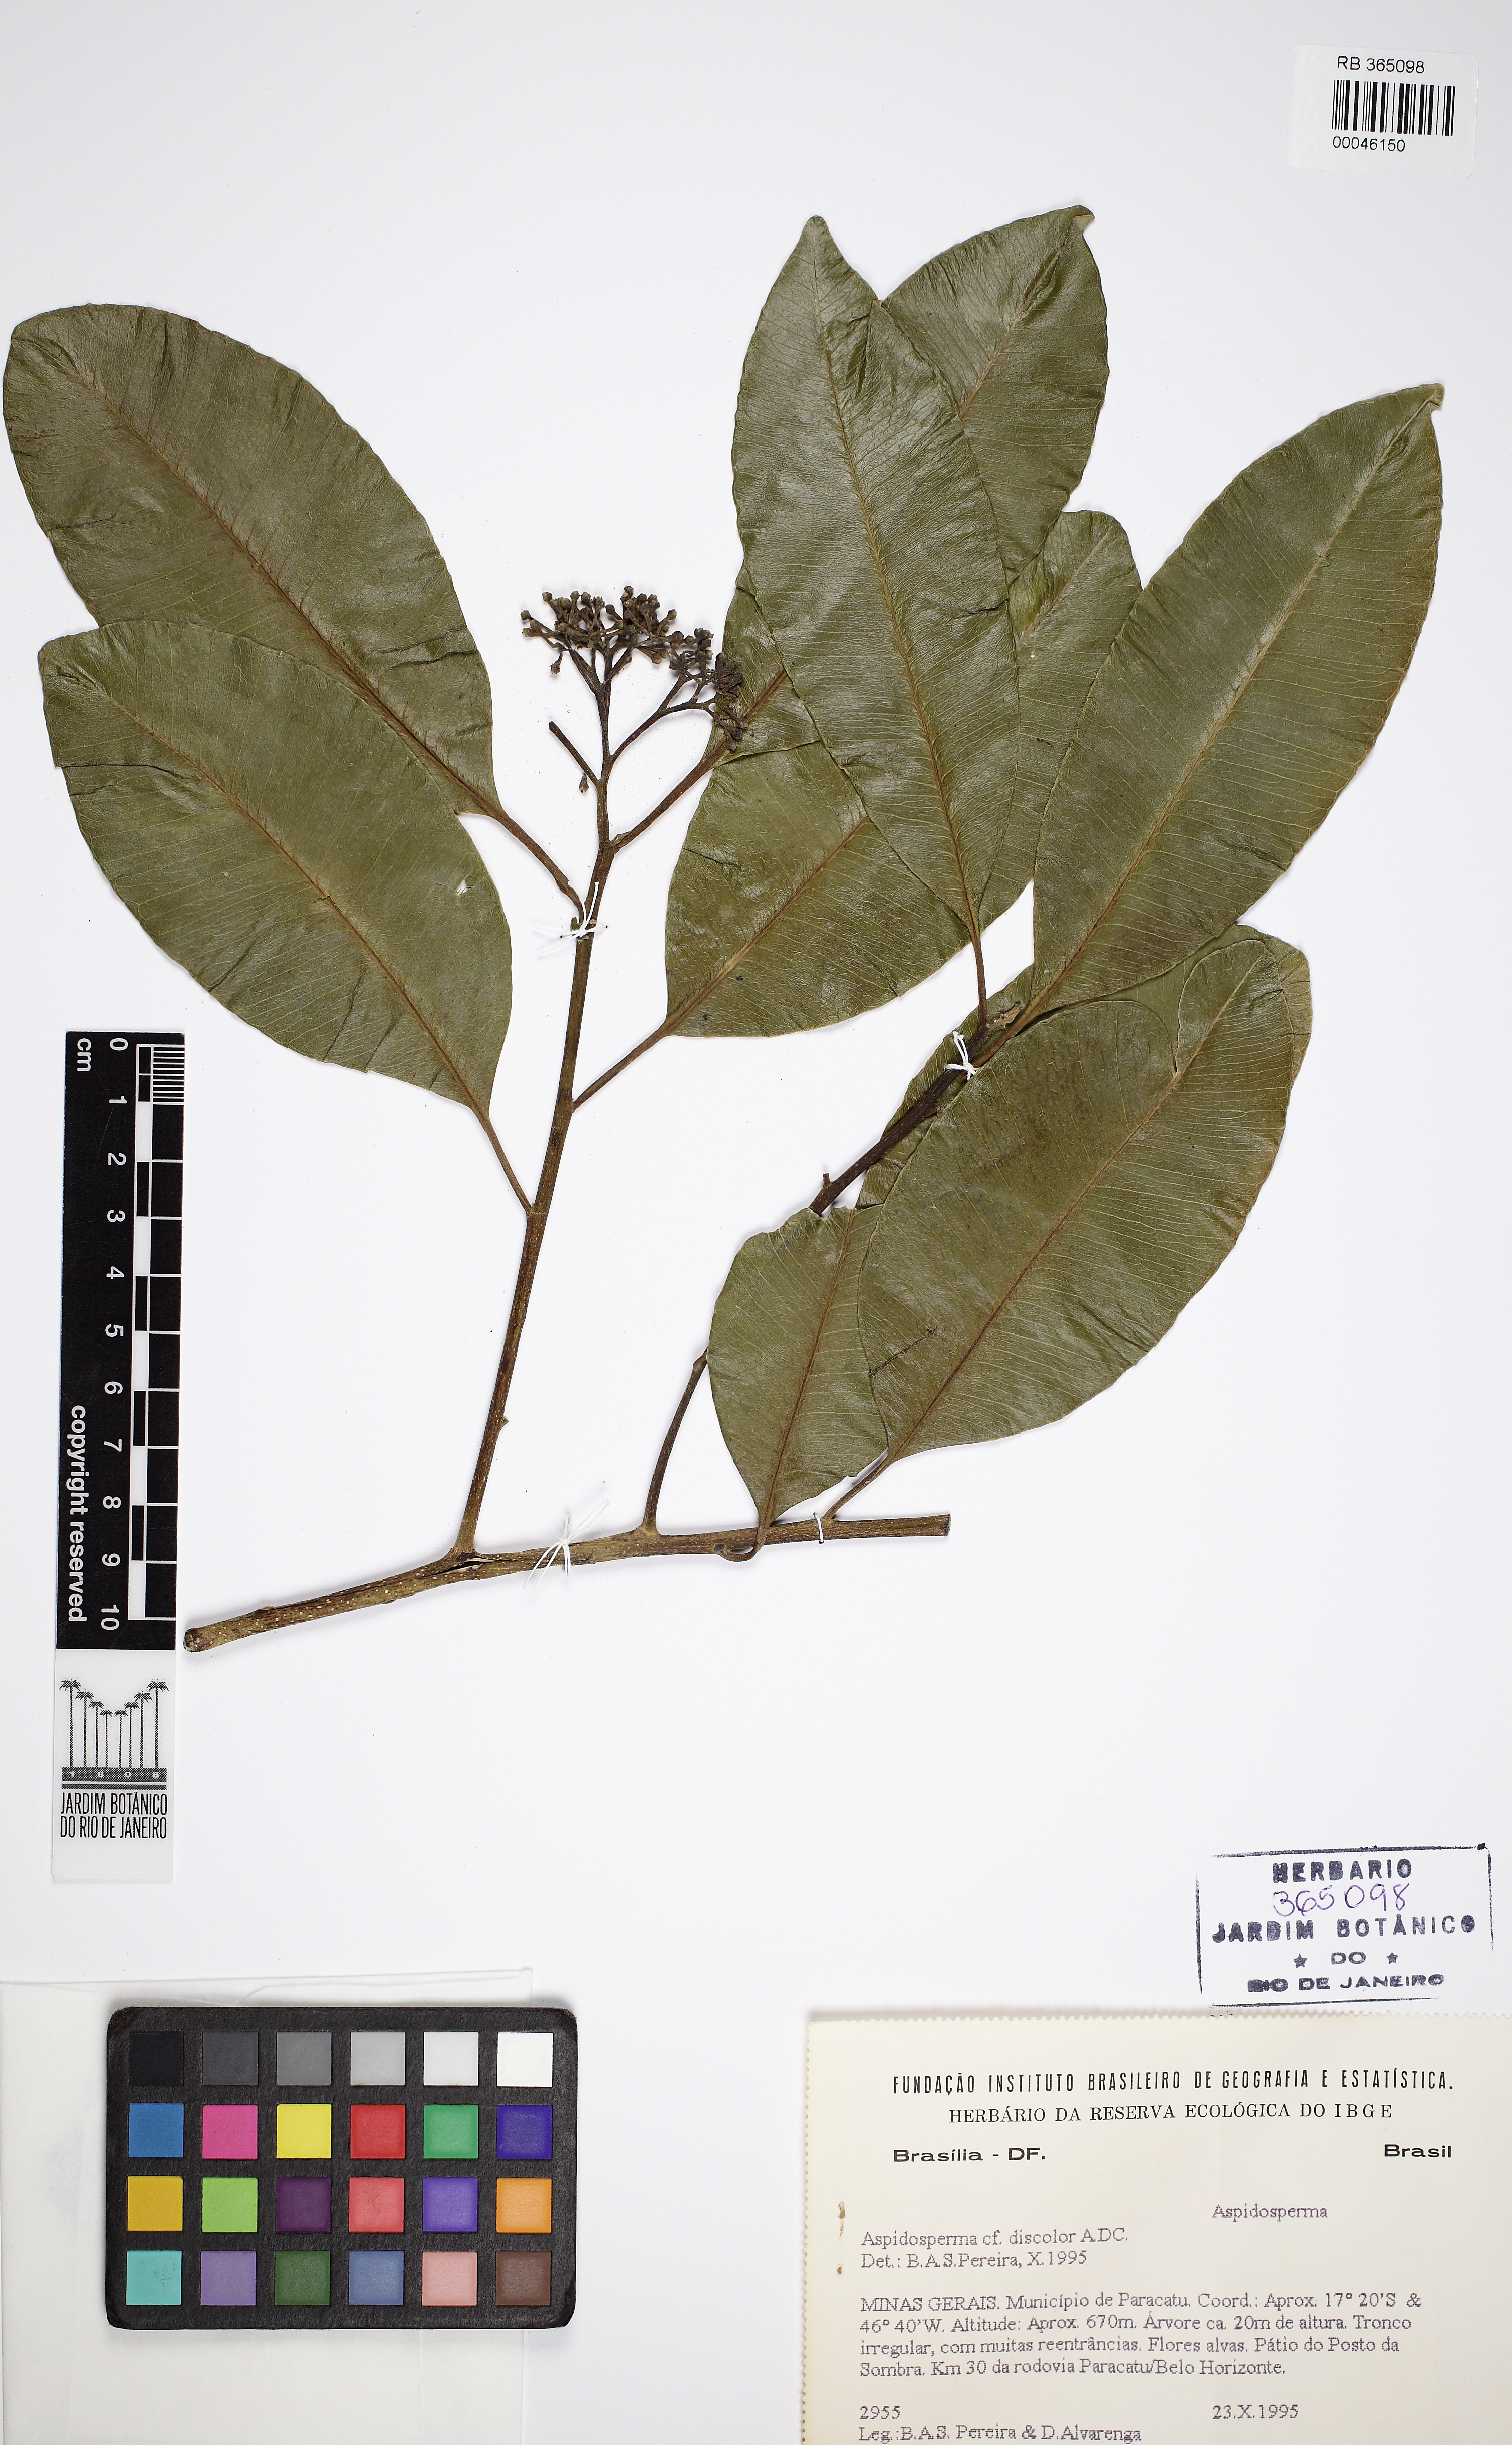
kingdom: Plantae
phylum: Tracheophyta
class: Magnoliopsida
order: Gentianales
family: Apocynaceae
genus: Aspidosperma
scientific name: Aspidosperma discolor
